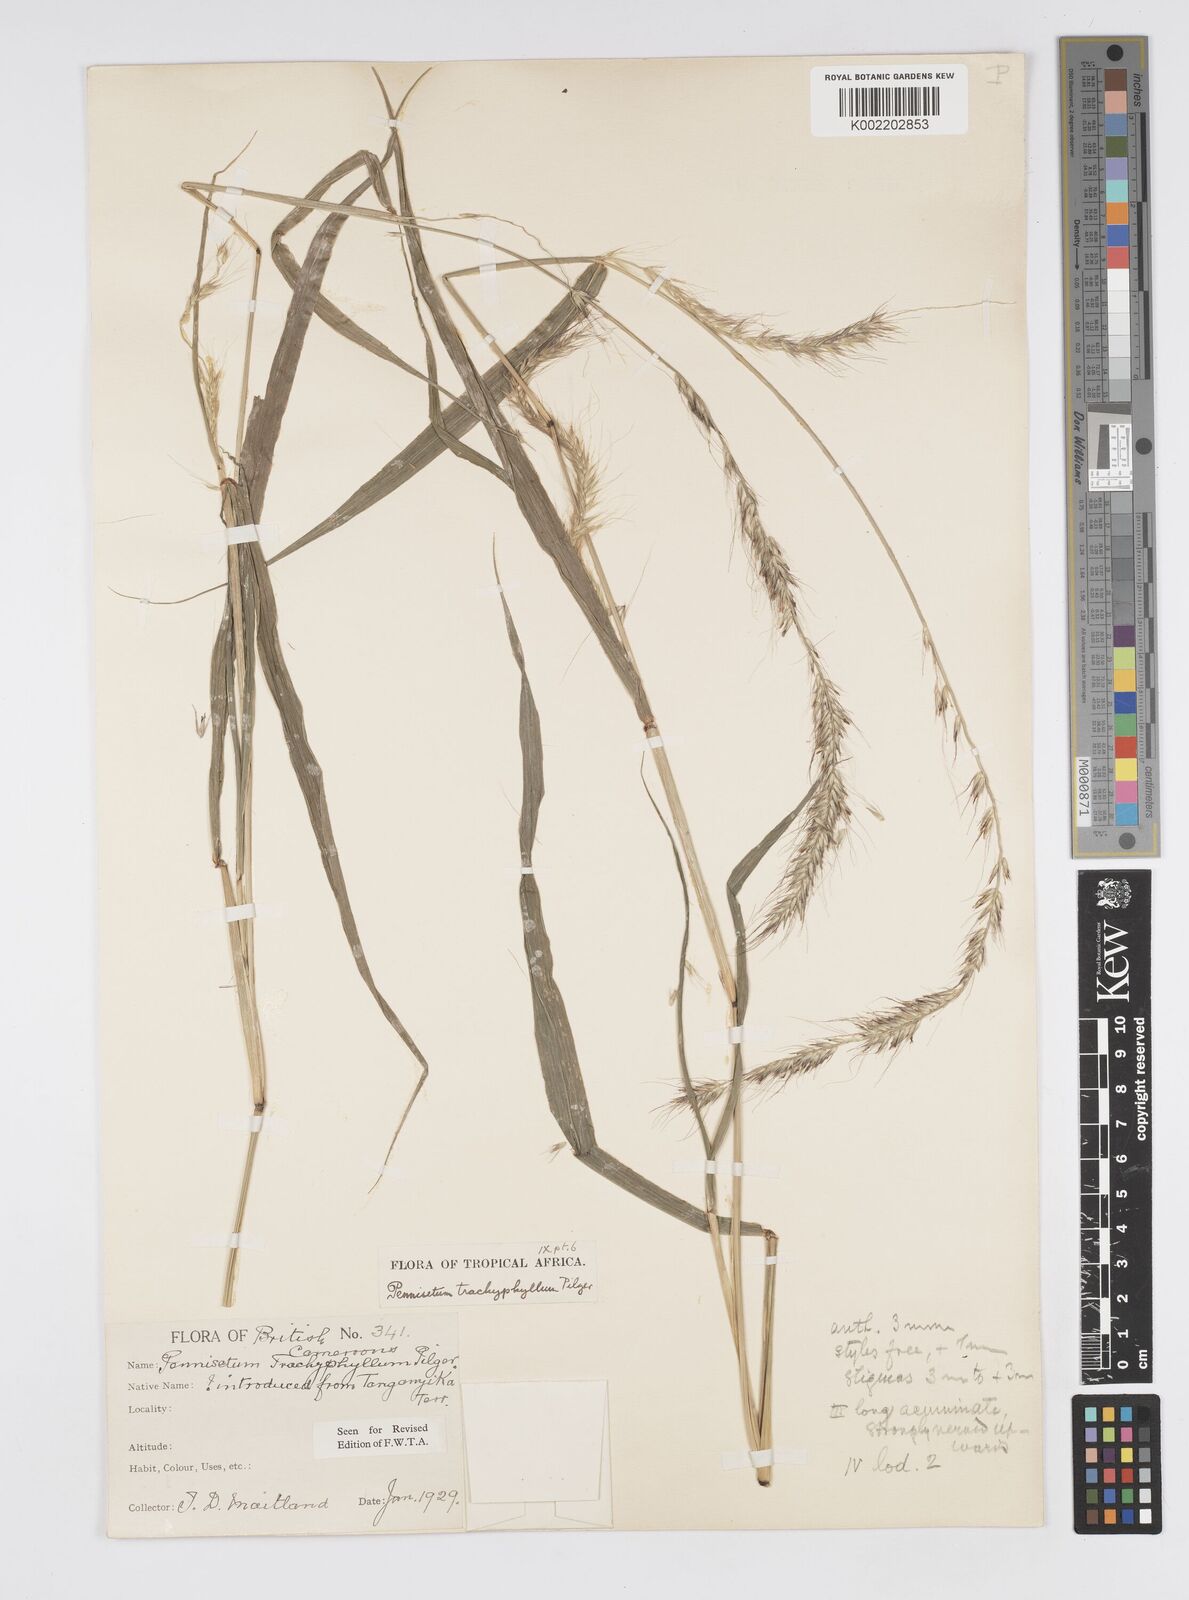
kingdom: Plantae
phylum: Tracheophyta
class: Liliopsida
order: Poales
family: Poaceae
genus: Cenchrus
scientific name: Cenchrus trachyphyllus
